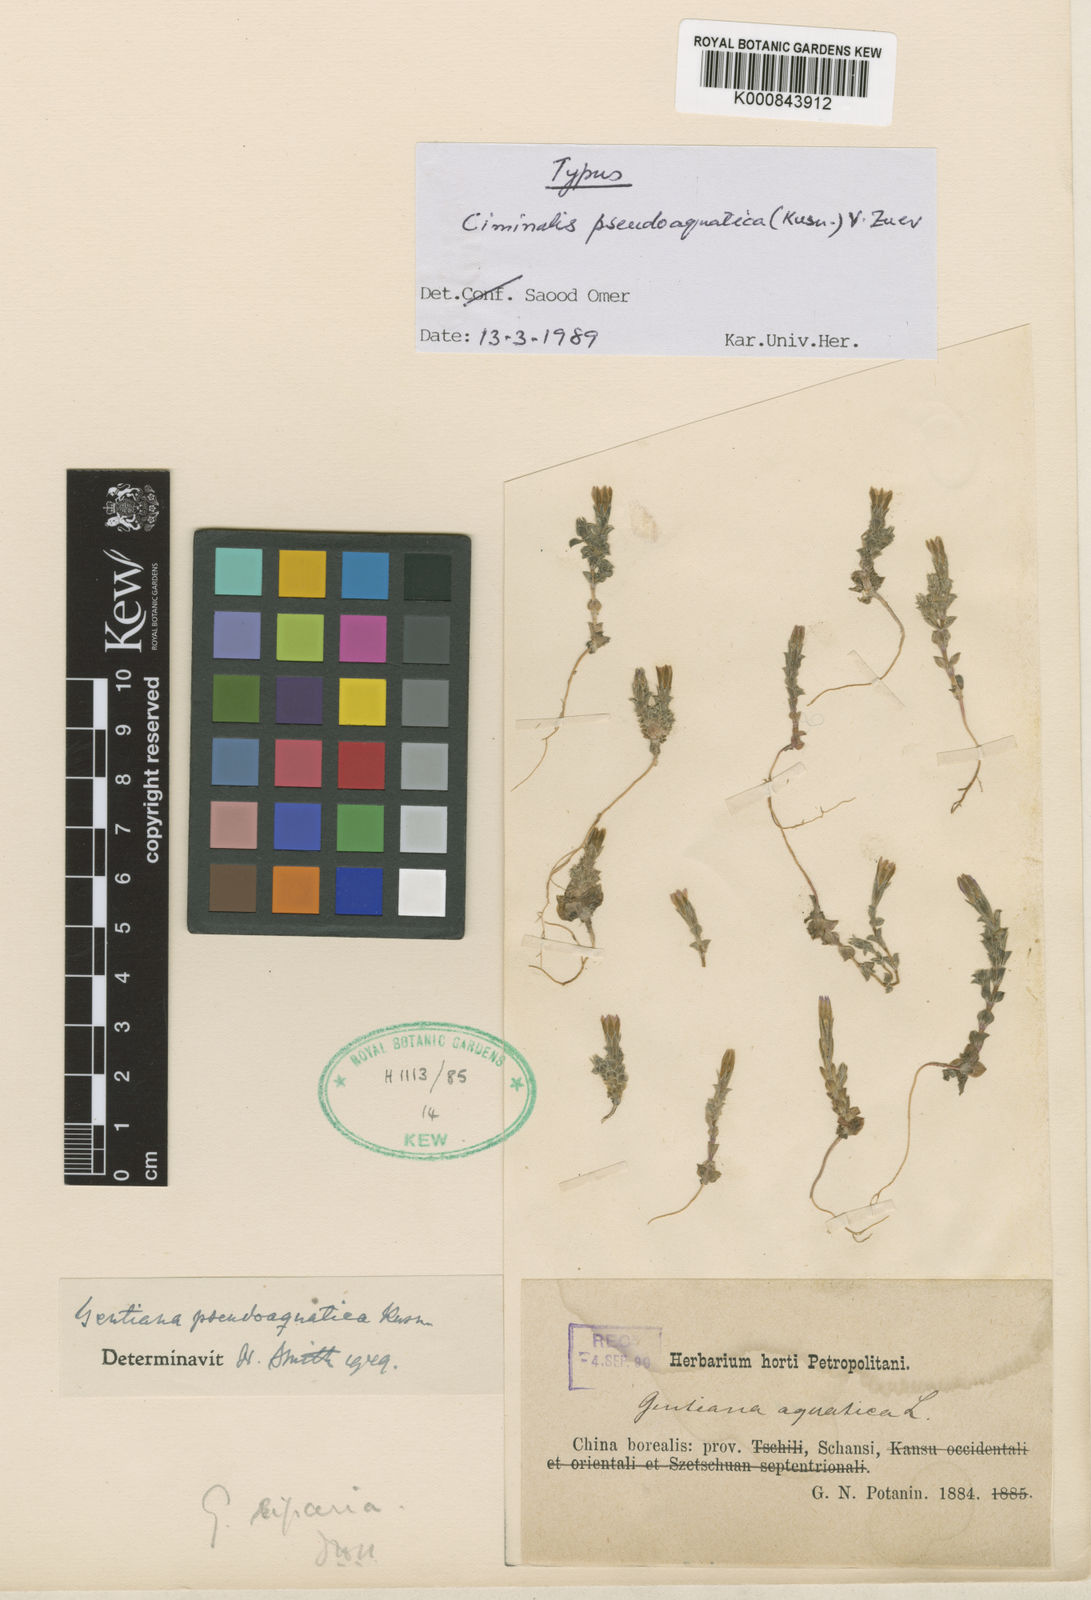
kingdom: Plantae
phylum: Tracheophyta
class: Magnoliopsida
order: Gentianales
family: Gentianaceae
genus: Gentiana
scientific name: Gentiana aquatica
